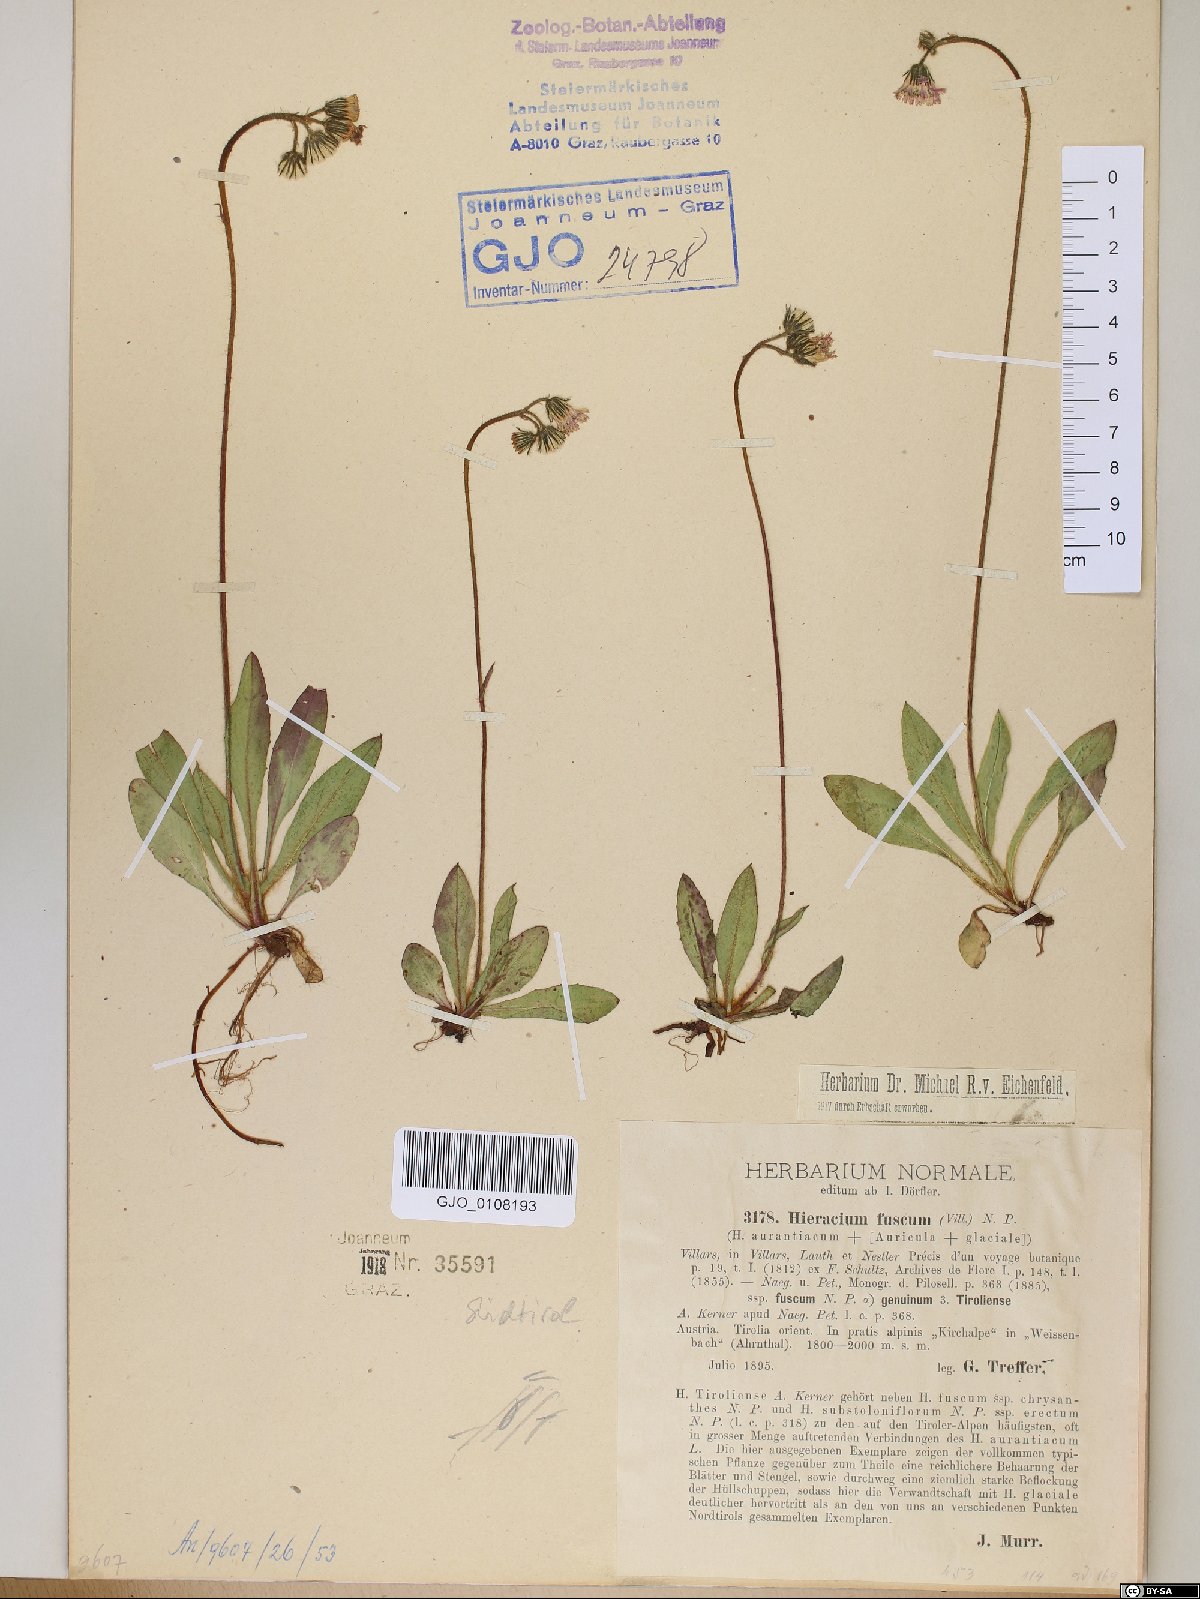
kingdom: Plantae
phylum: Tracheophyta
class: Magnoliopsida
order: Asterales
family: Asteraceae
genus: Pilosella
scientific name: Pilosella fusca
